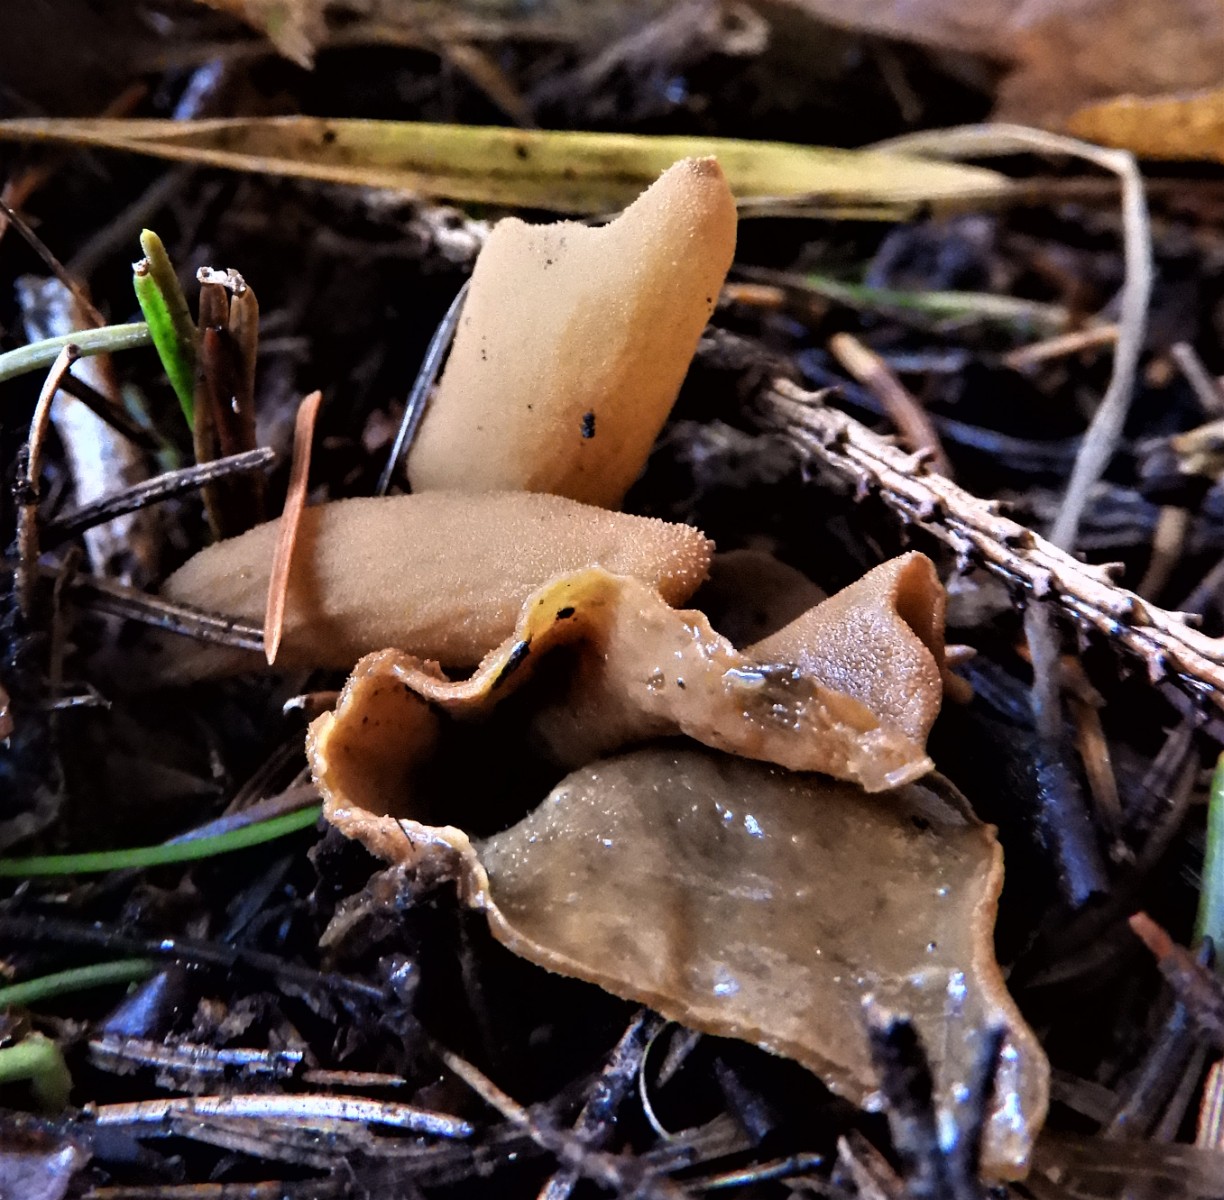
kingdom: Fungi
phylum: Ascomycota
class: Pezizomycetes
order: Pezizales
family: Otideaceae
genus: Otidea
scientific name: Otidea
